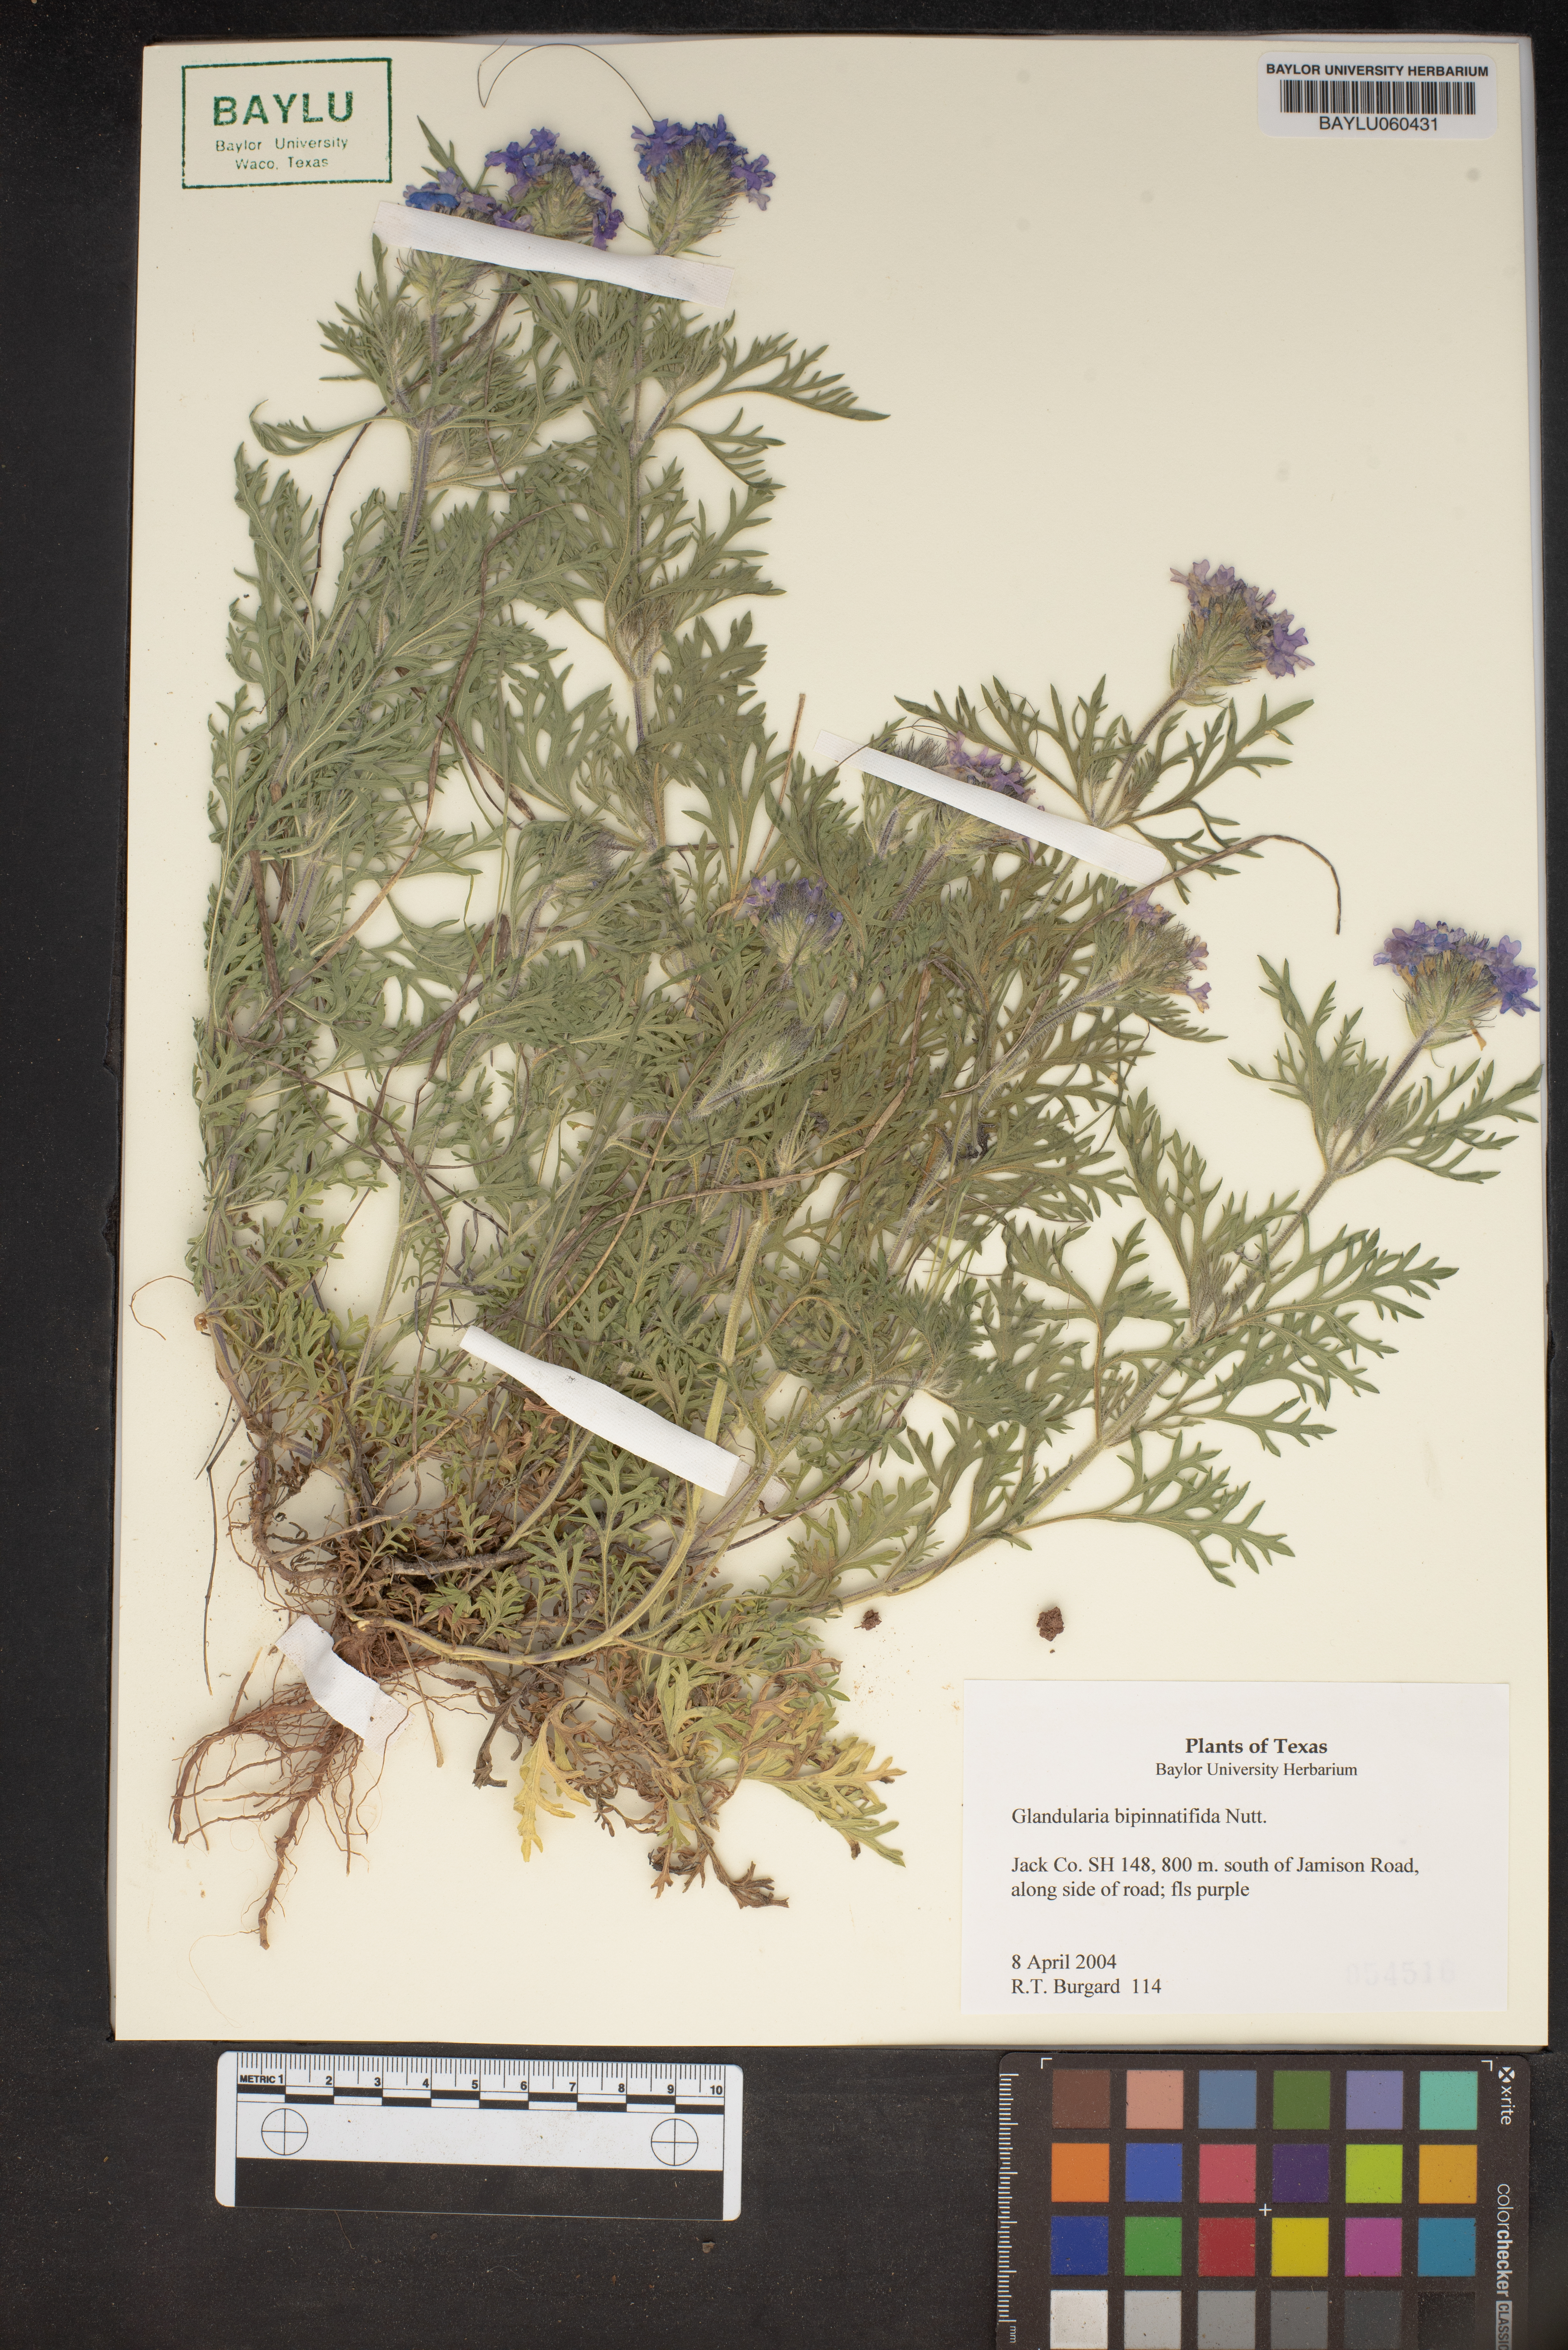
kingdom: Plantae
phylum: Tracheophyta
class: Magnoliopsida
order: Lamiales
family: Verbenaceae
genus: Verbena
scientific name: Verbena bipinnatifida
